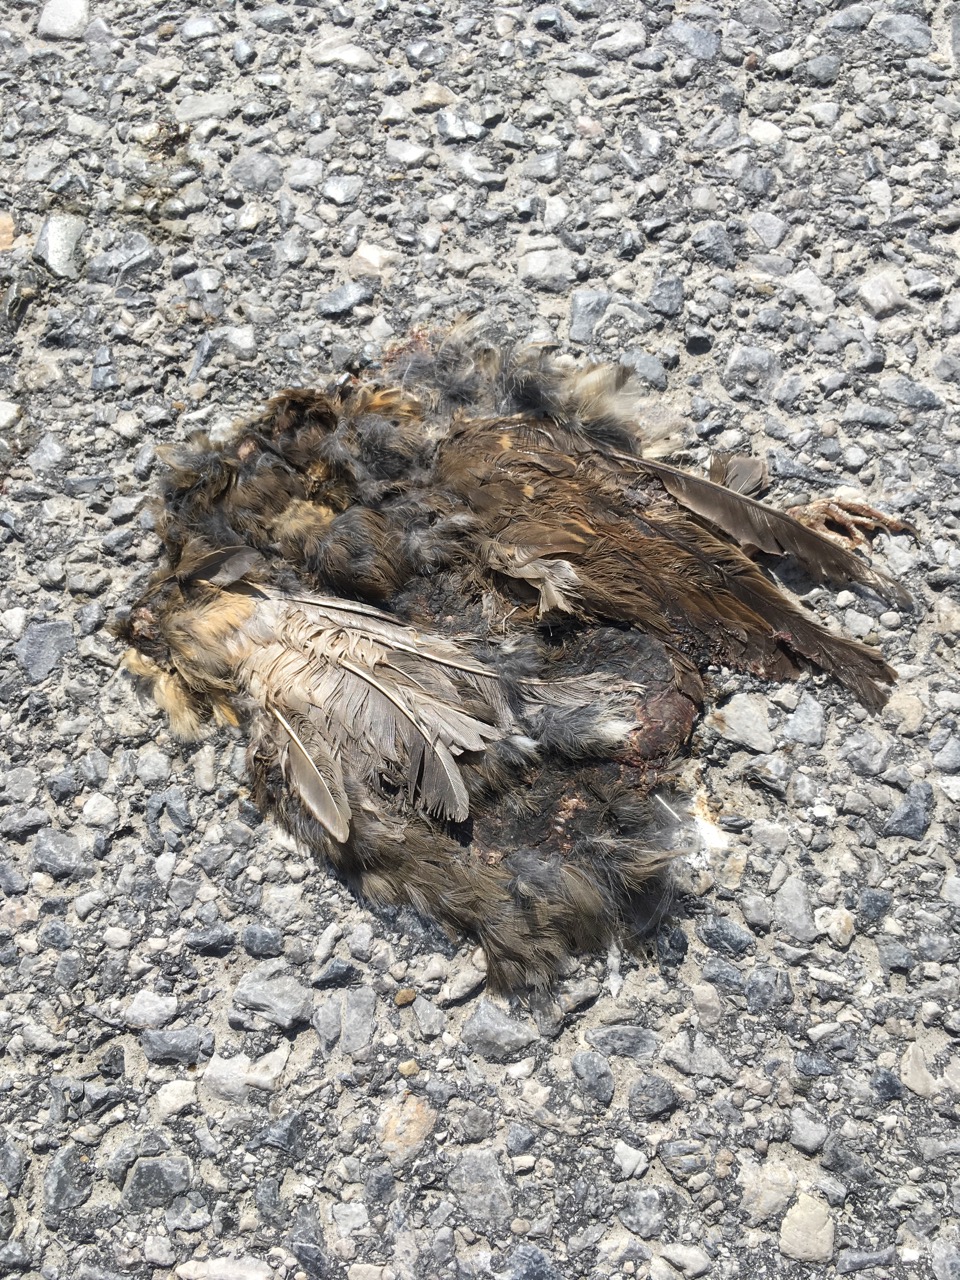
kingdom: Animalia
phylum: Chordata
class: Aves
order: Passeriformes
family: Turdidae
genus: Turdus
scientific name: Turdus philomelos
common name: Song thrush
